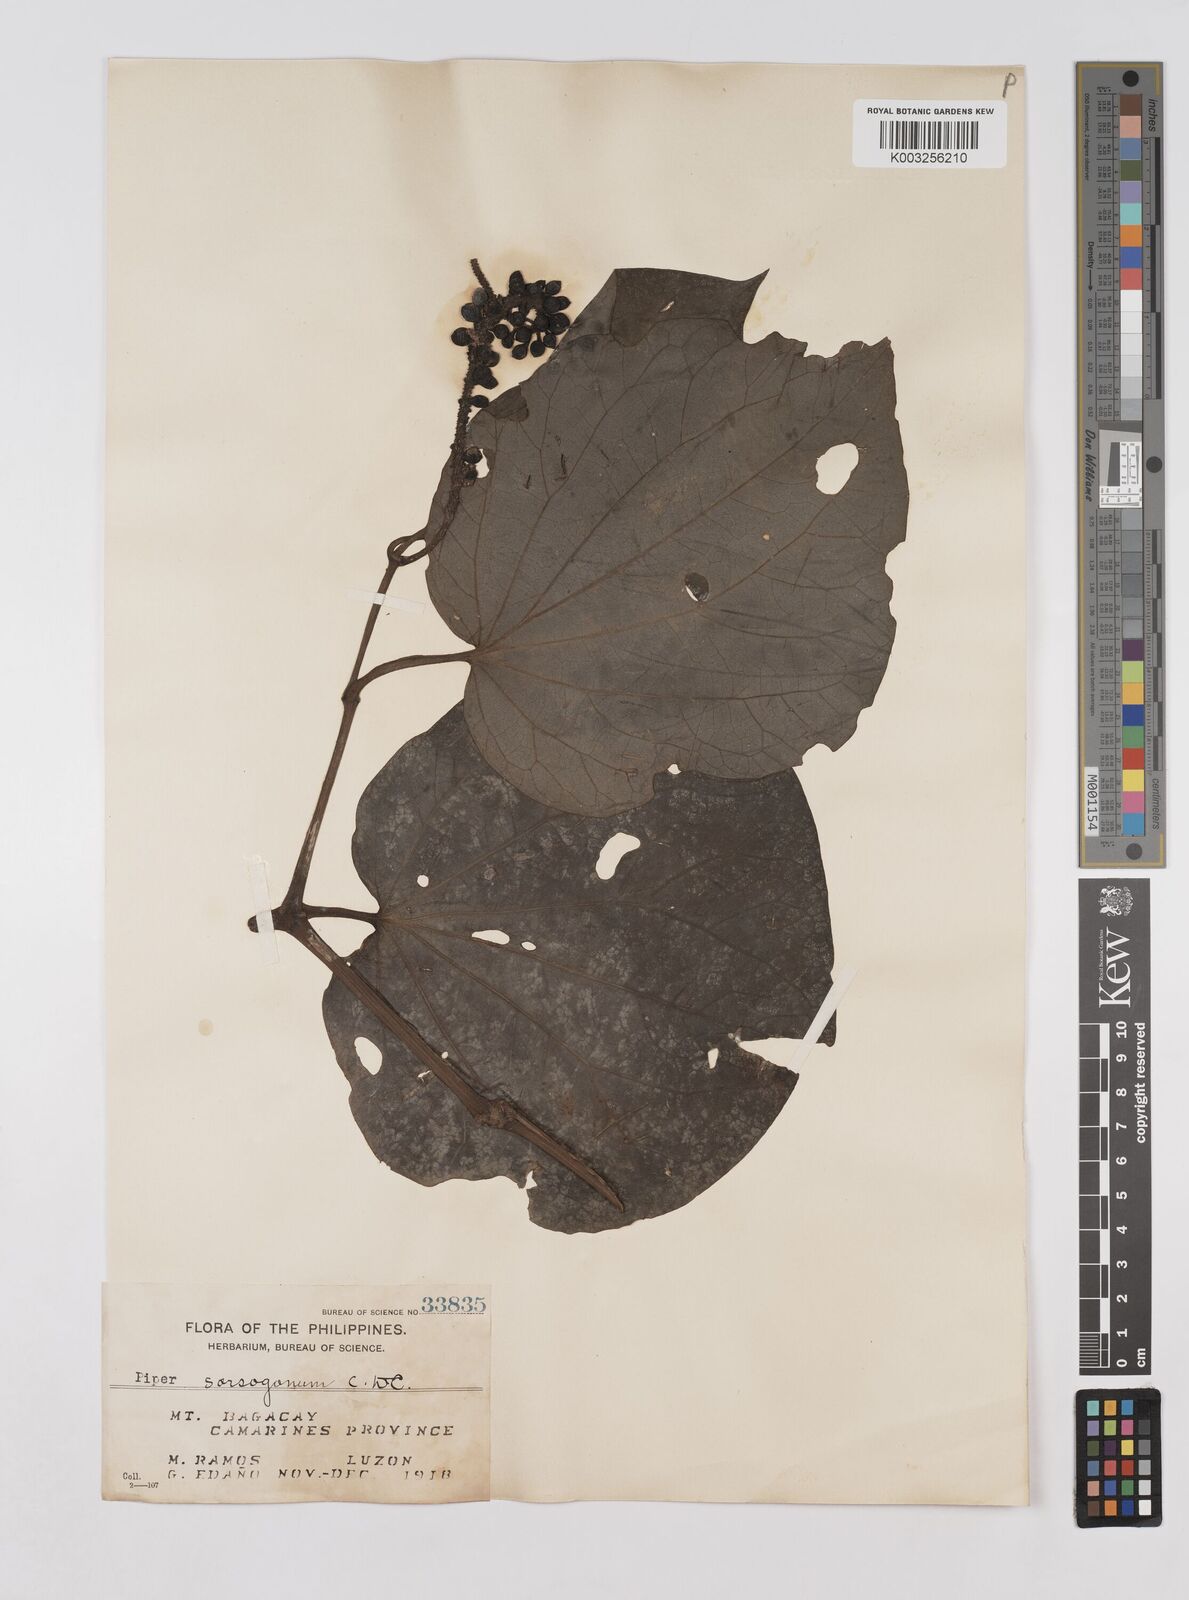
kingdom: Plantae
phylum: Tracheophyta
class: Magnoliopsida
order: Piperales
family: Piperaceae
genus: Piper
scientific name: Piper sorsogonum
